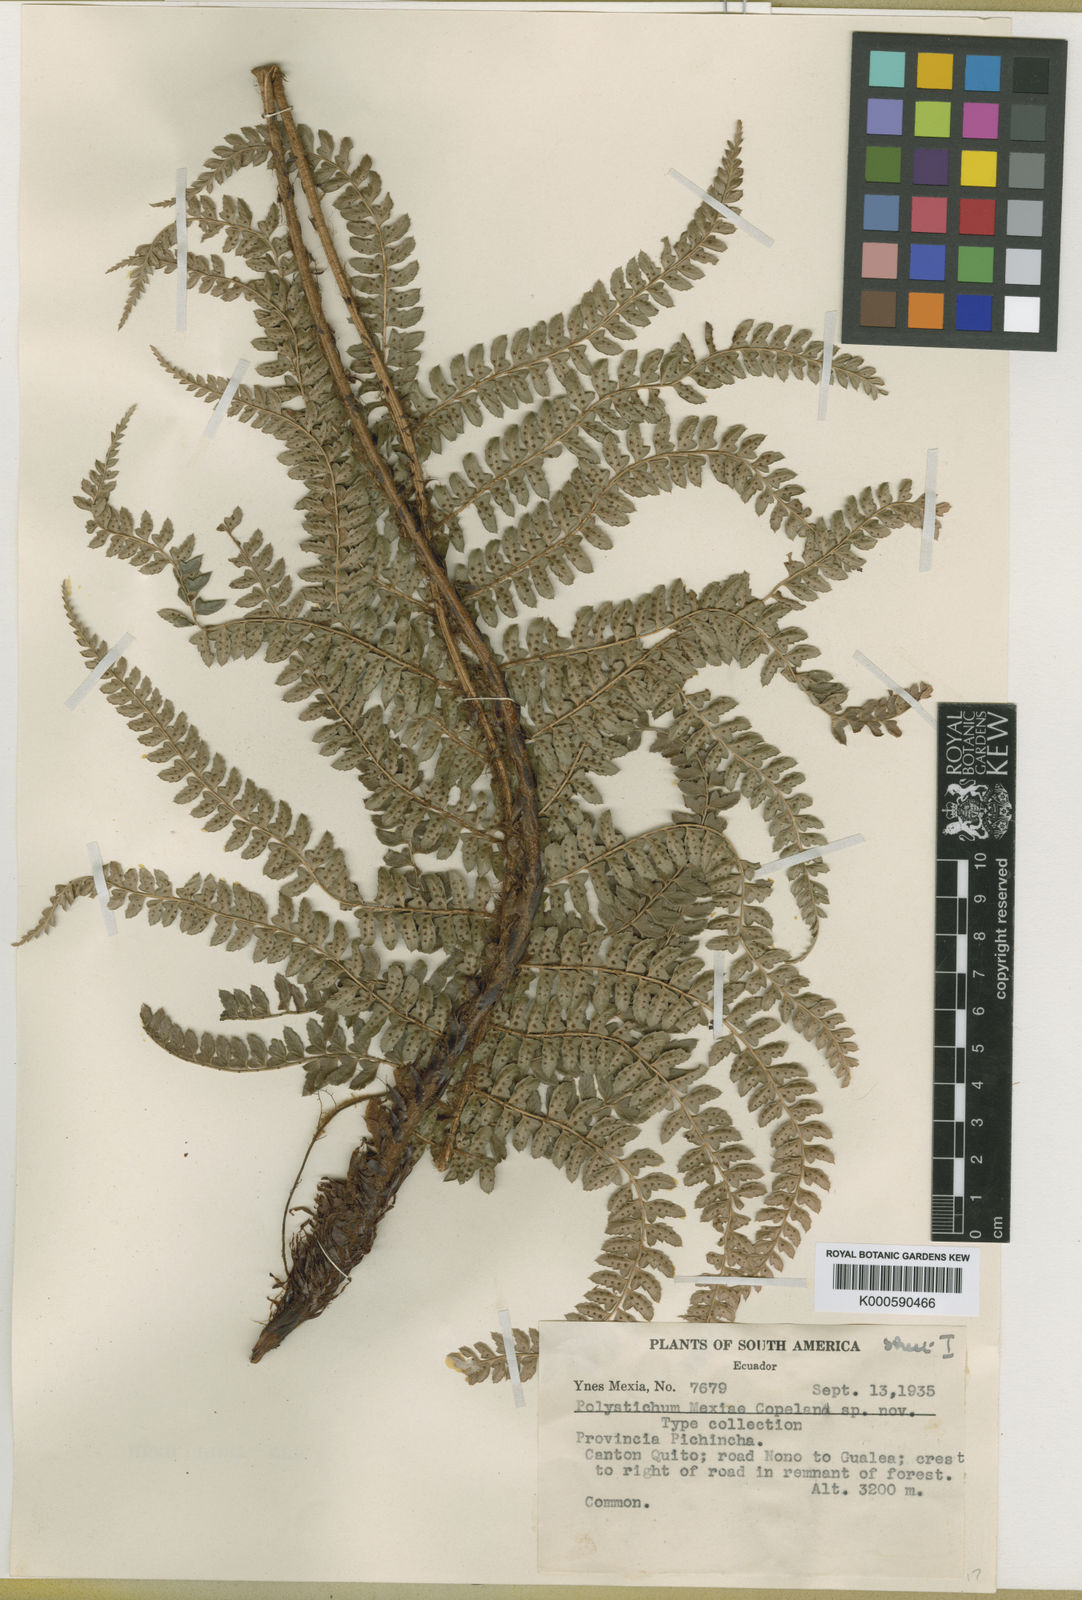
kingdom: Plantae
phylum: Tracheophyta
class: Polypodiopsida
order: Polypodiales
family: Dryopteridaceae
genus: Polystichum
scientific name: Polystichum montevidense
